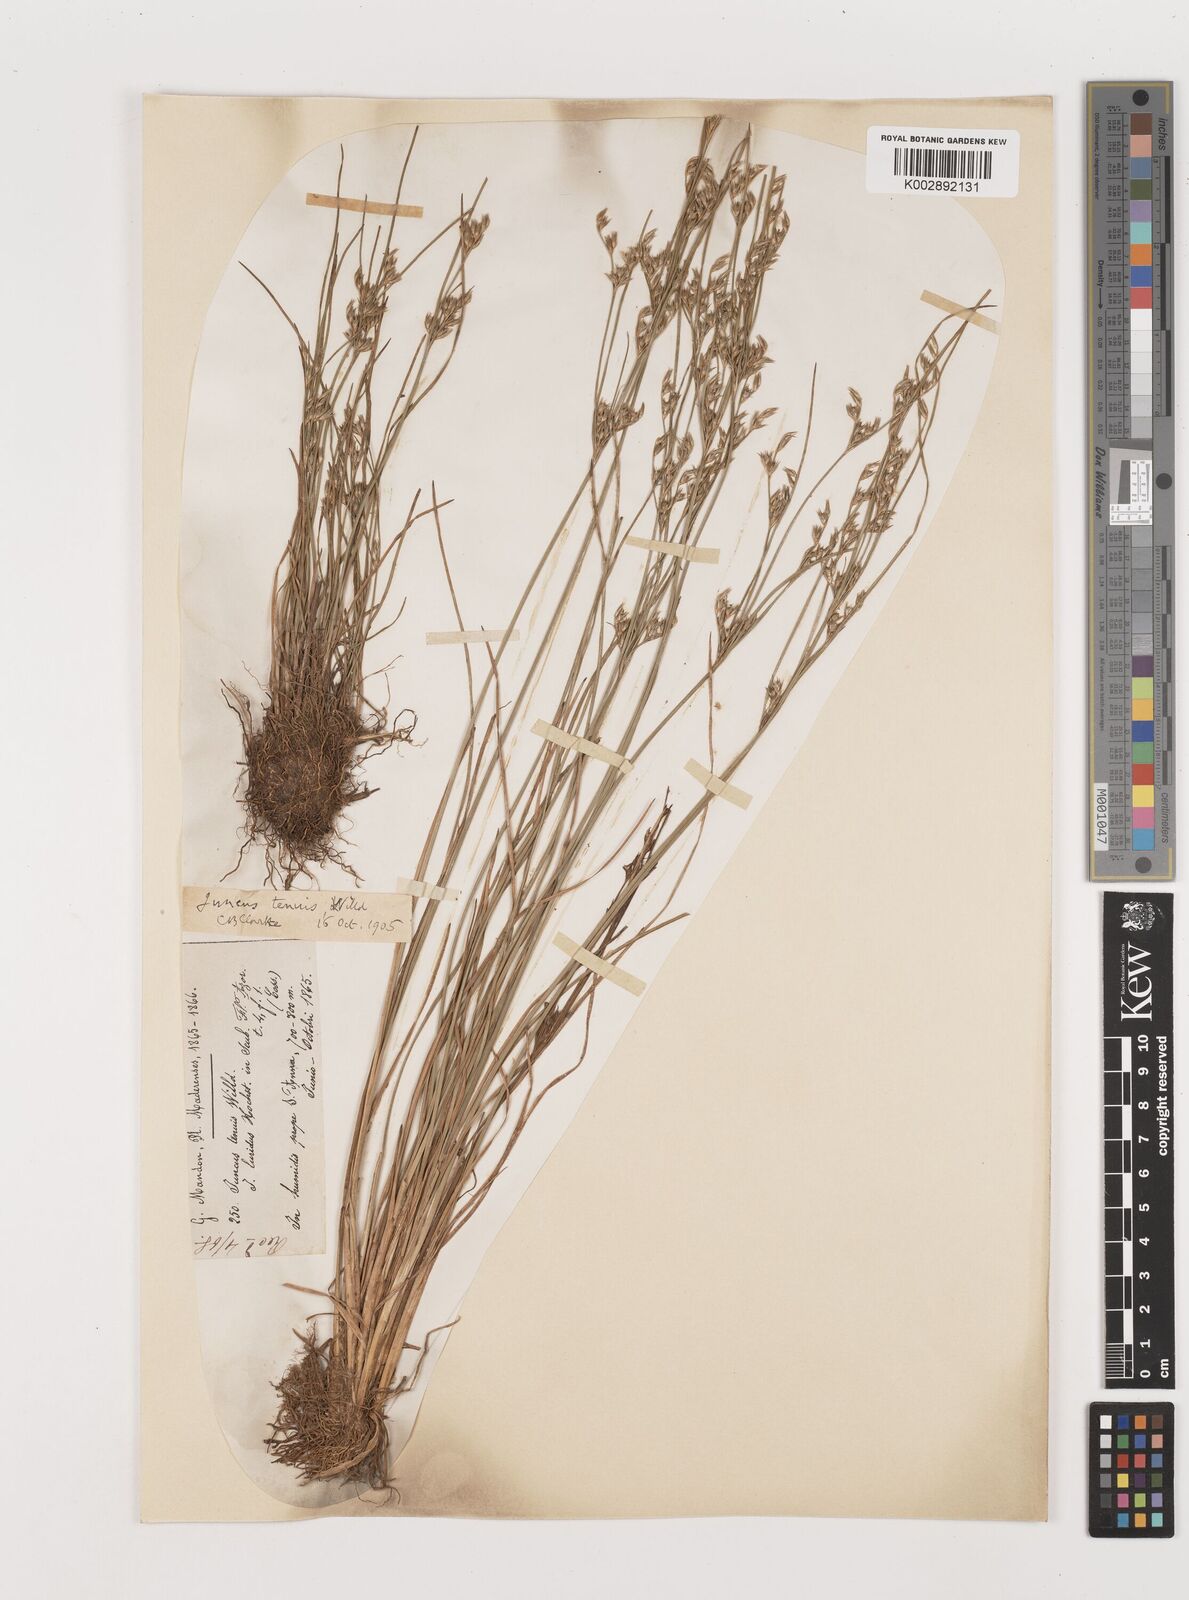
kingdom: Plantae
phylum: Tracheophyta
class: Liliopsida
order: Poales
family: Juncaceae
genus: Juncus
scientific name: Juncus tenuis
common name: Slender rush
